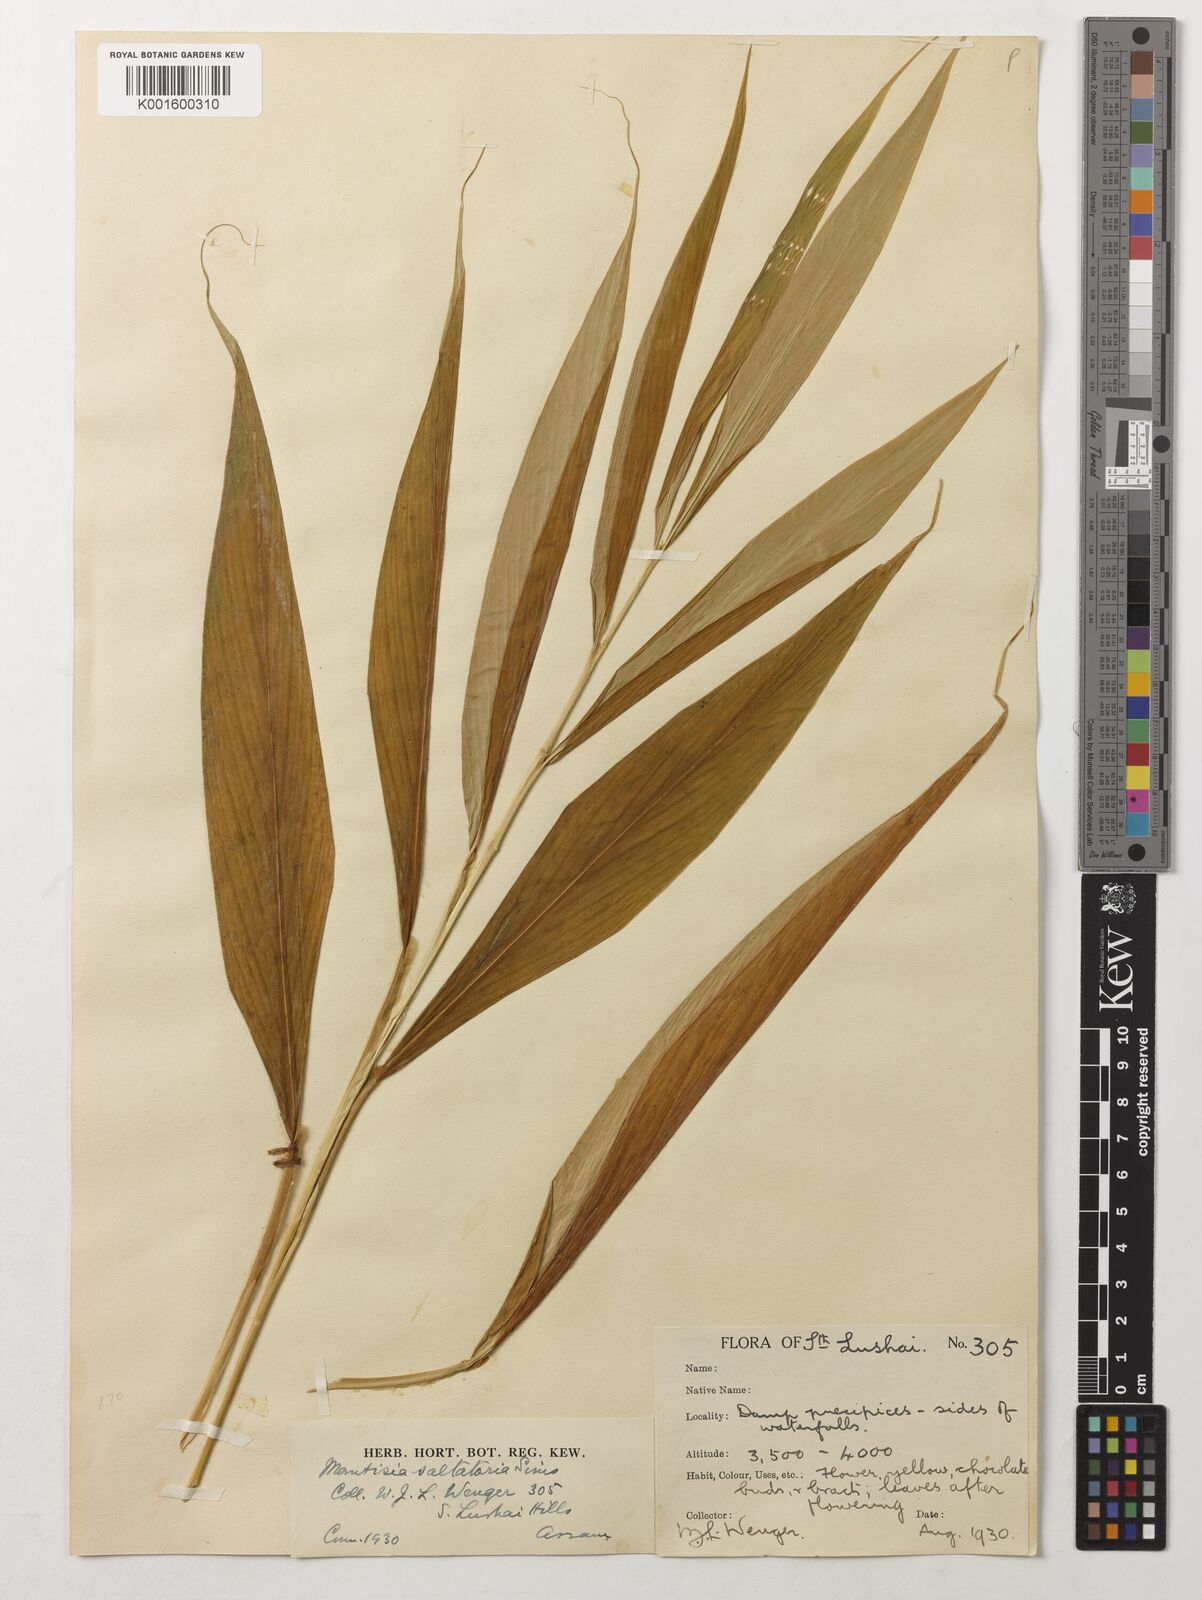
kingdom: Plantae
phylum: Tracheophyta
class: Liliopsida
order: Zingiberales
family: Zingiberaceae
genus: Globba
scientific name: Globba radicalis
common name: Dancing girl
